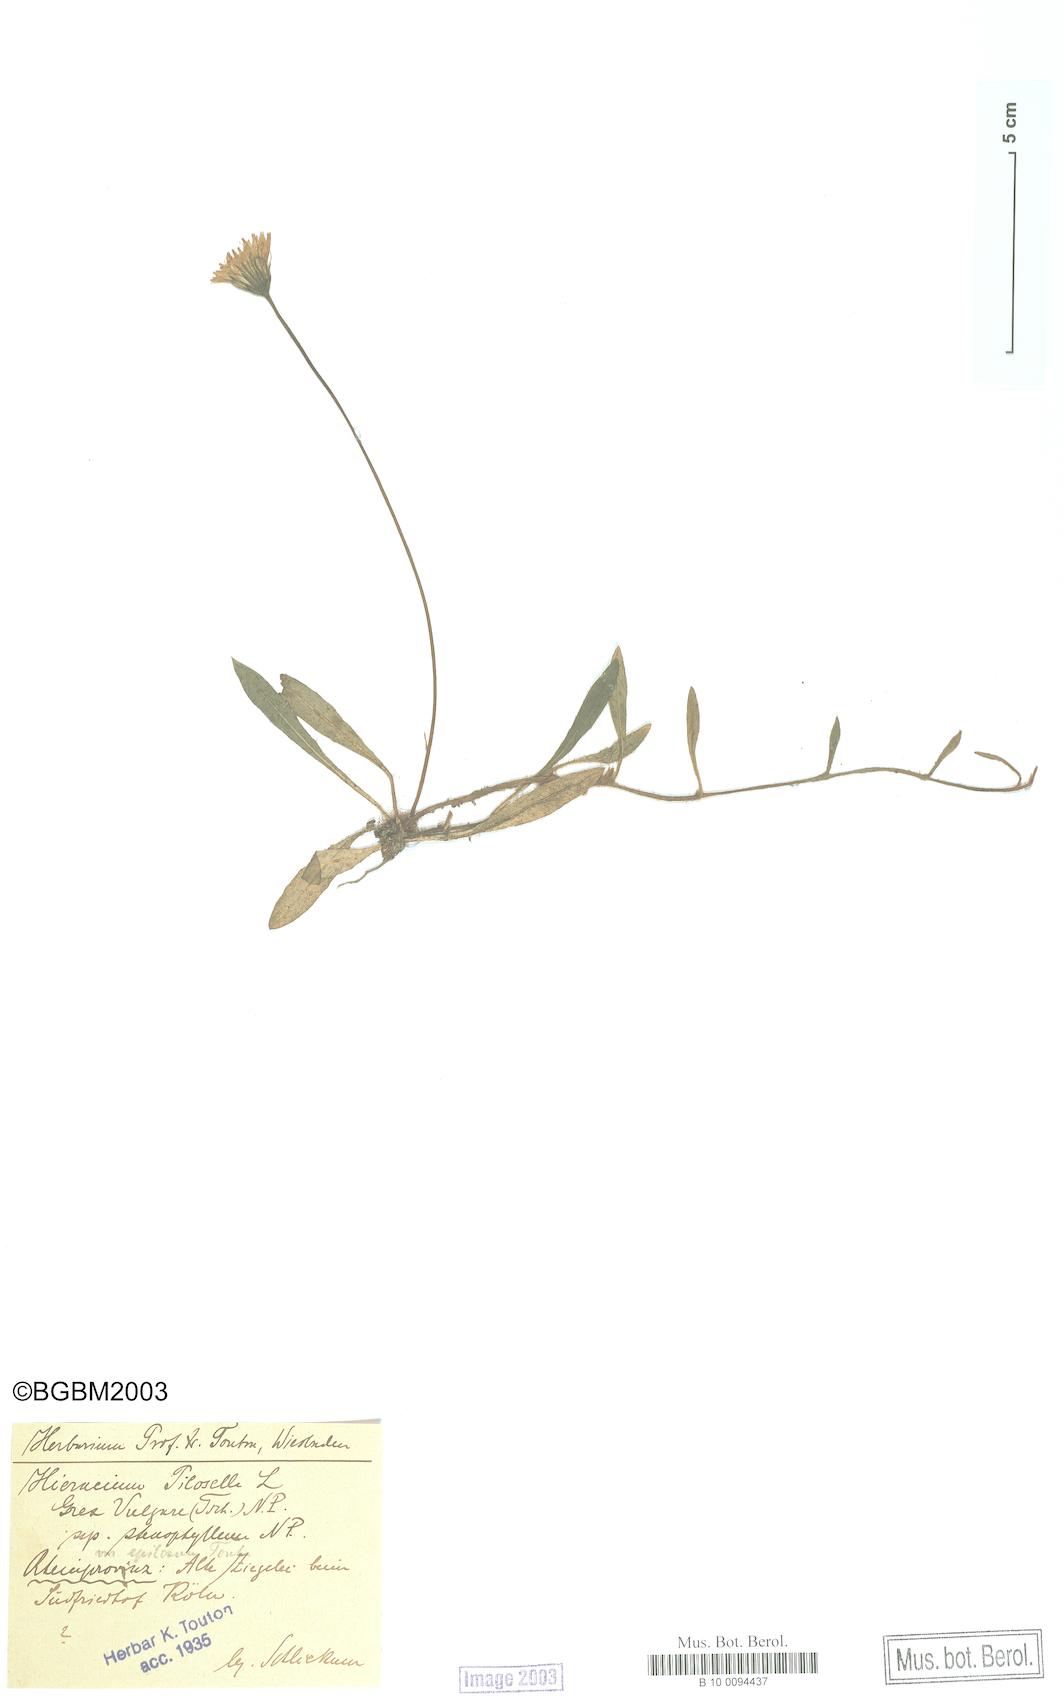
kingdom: Plantae
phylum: Tracheophyta
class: Magnoliopsida
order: Asterales
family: Asteraceae
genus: Pilosella
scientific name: Pilosella officinarum
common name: Mouse-ear hawkweed
